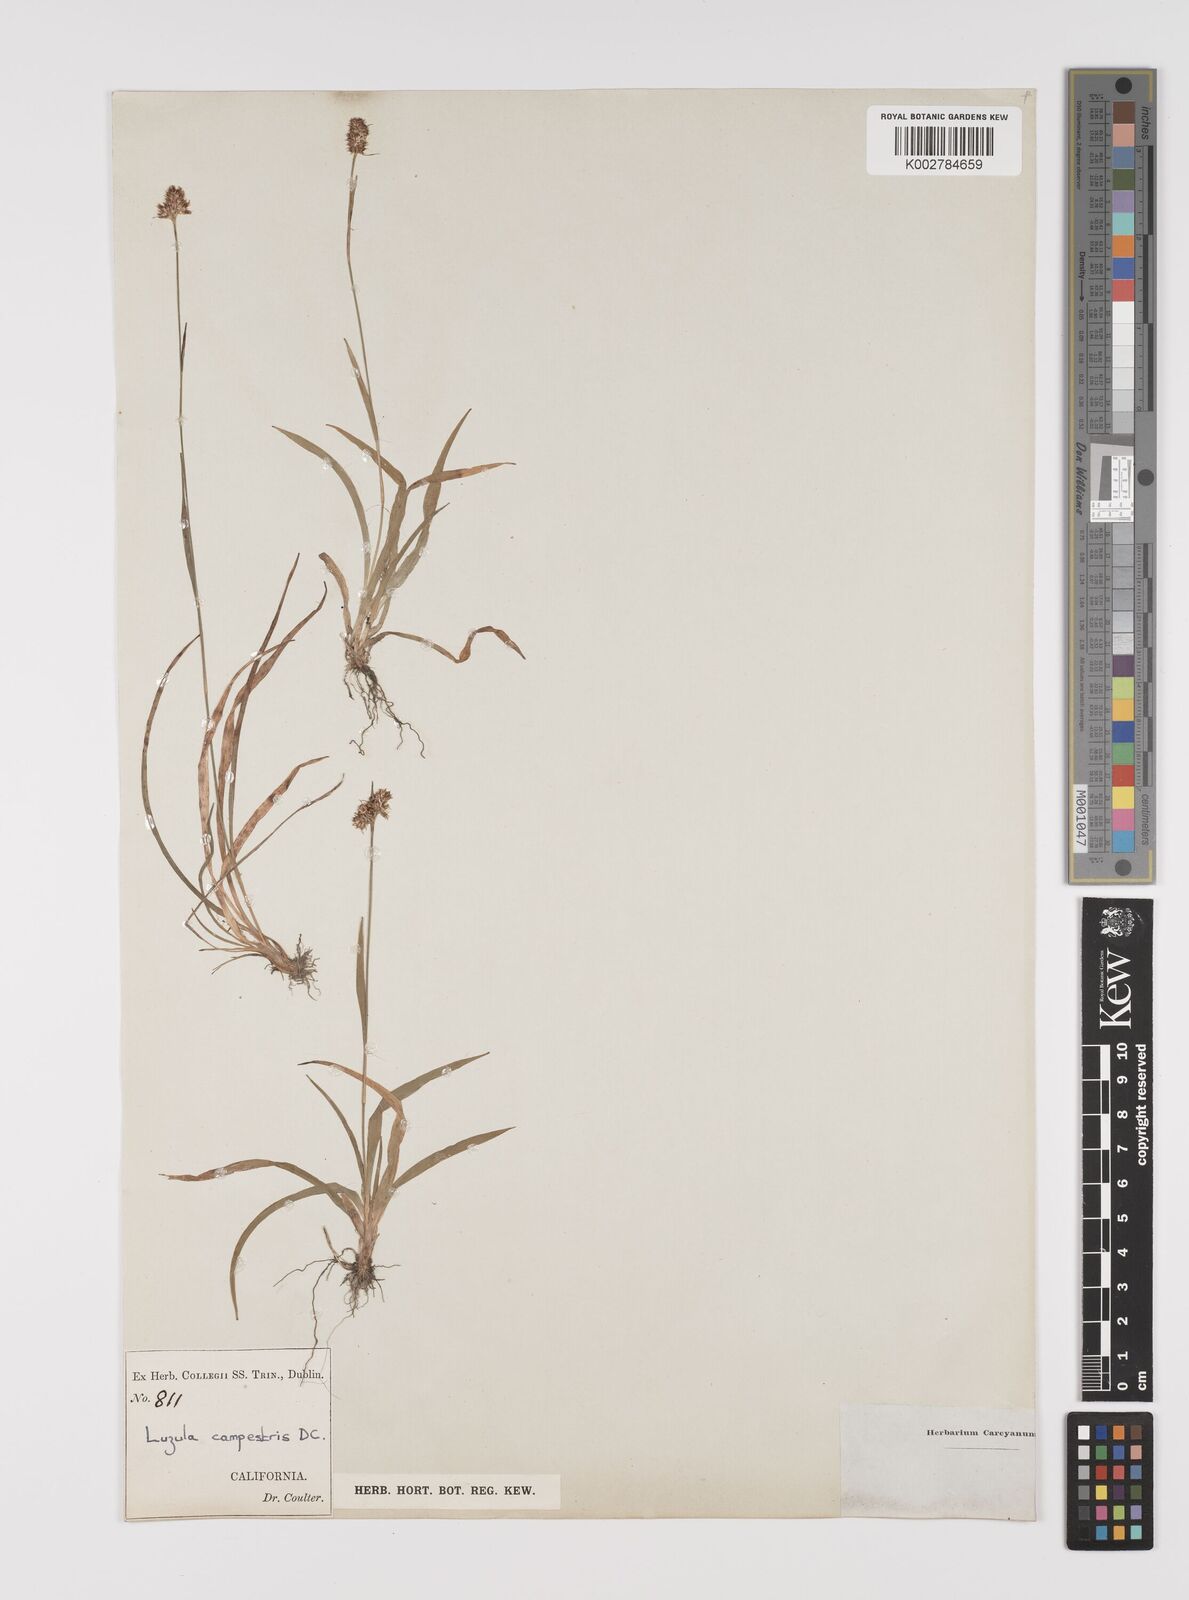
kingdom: Plantae
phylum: Tracheophyta
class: Liliopsida
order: Poales
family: Juncaceae
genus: Luzula
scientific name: Luzula campestris
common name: Field wood-rush
